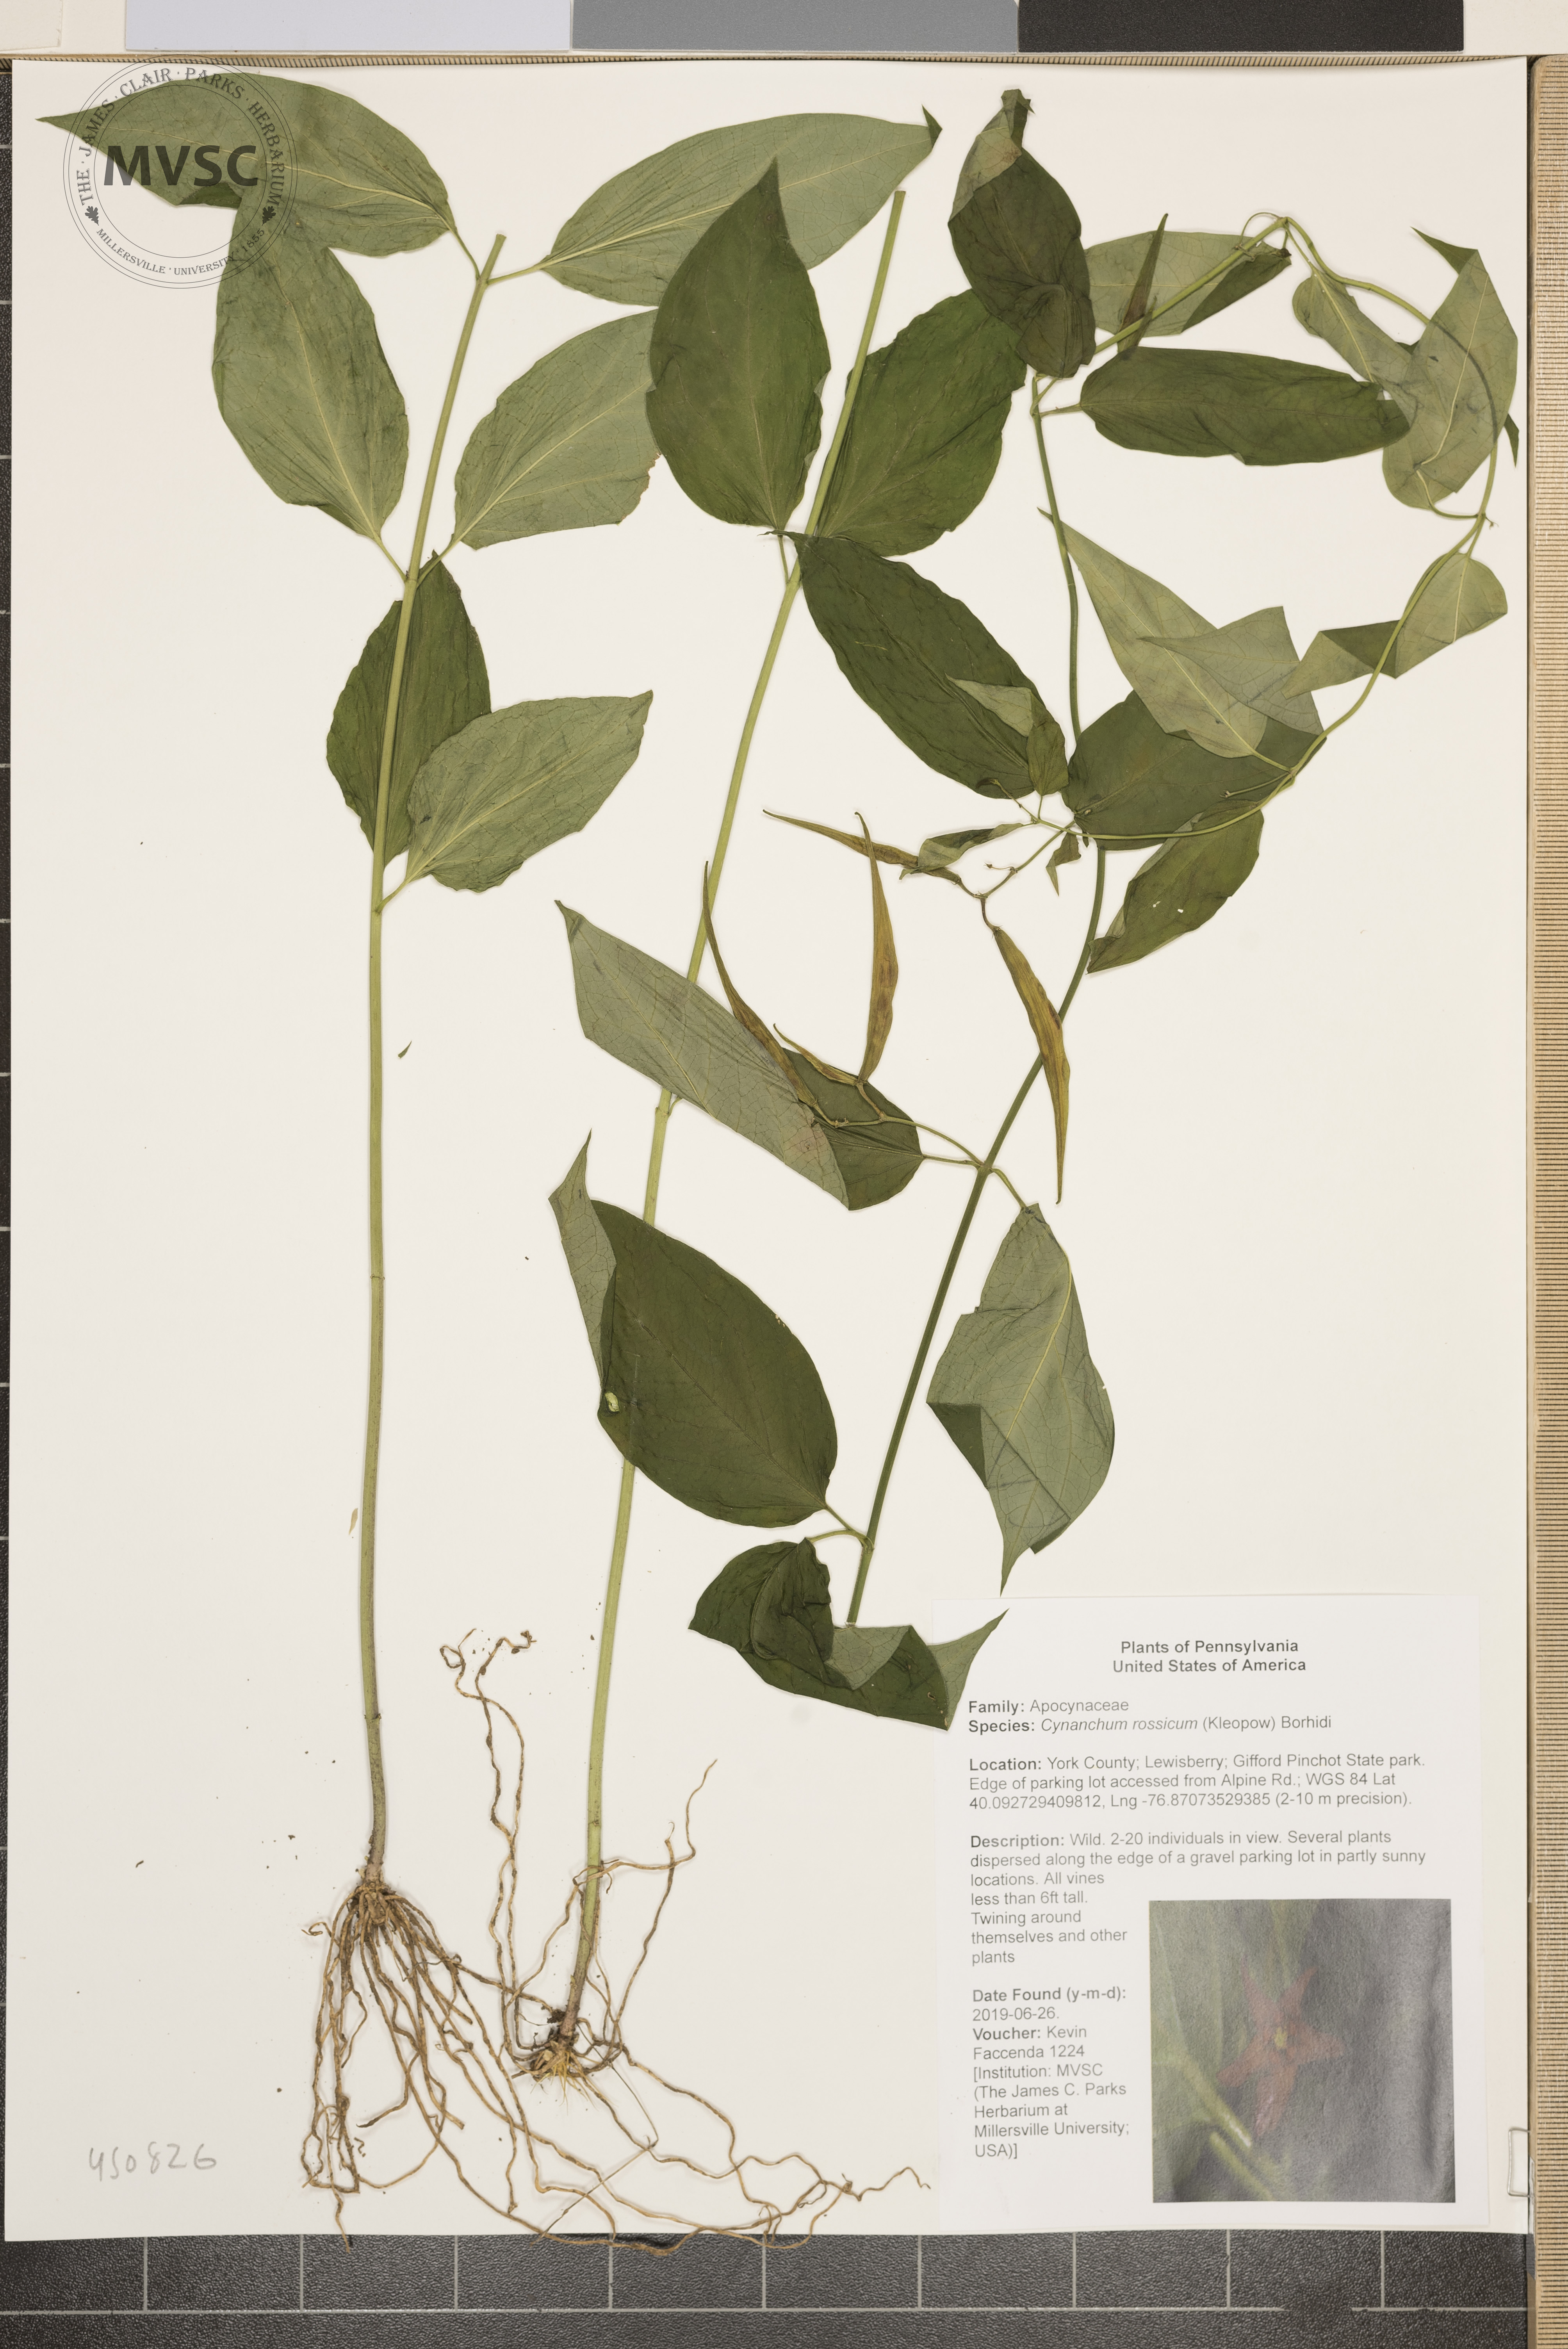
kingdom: Plantae
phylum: Tracheophyta
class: Magnoliopsida
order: Gentianales
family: Apocynaceae
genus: Vincetoxicum
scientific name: Vincetoxicum rossicum
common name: Dog-strangling vine
